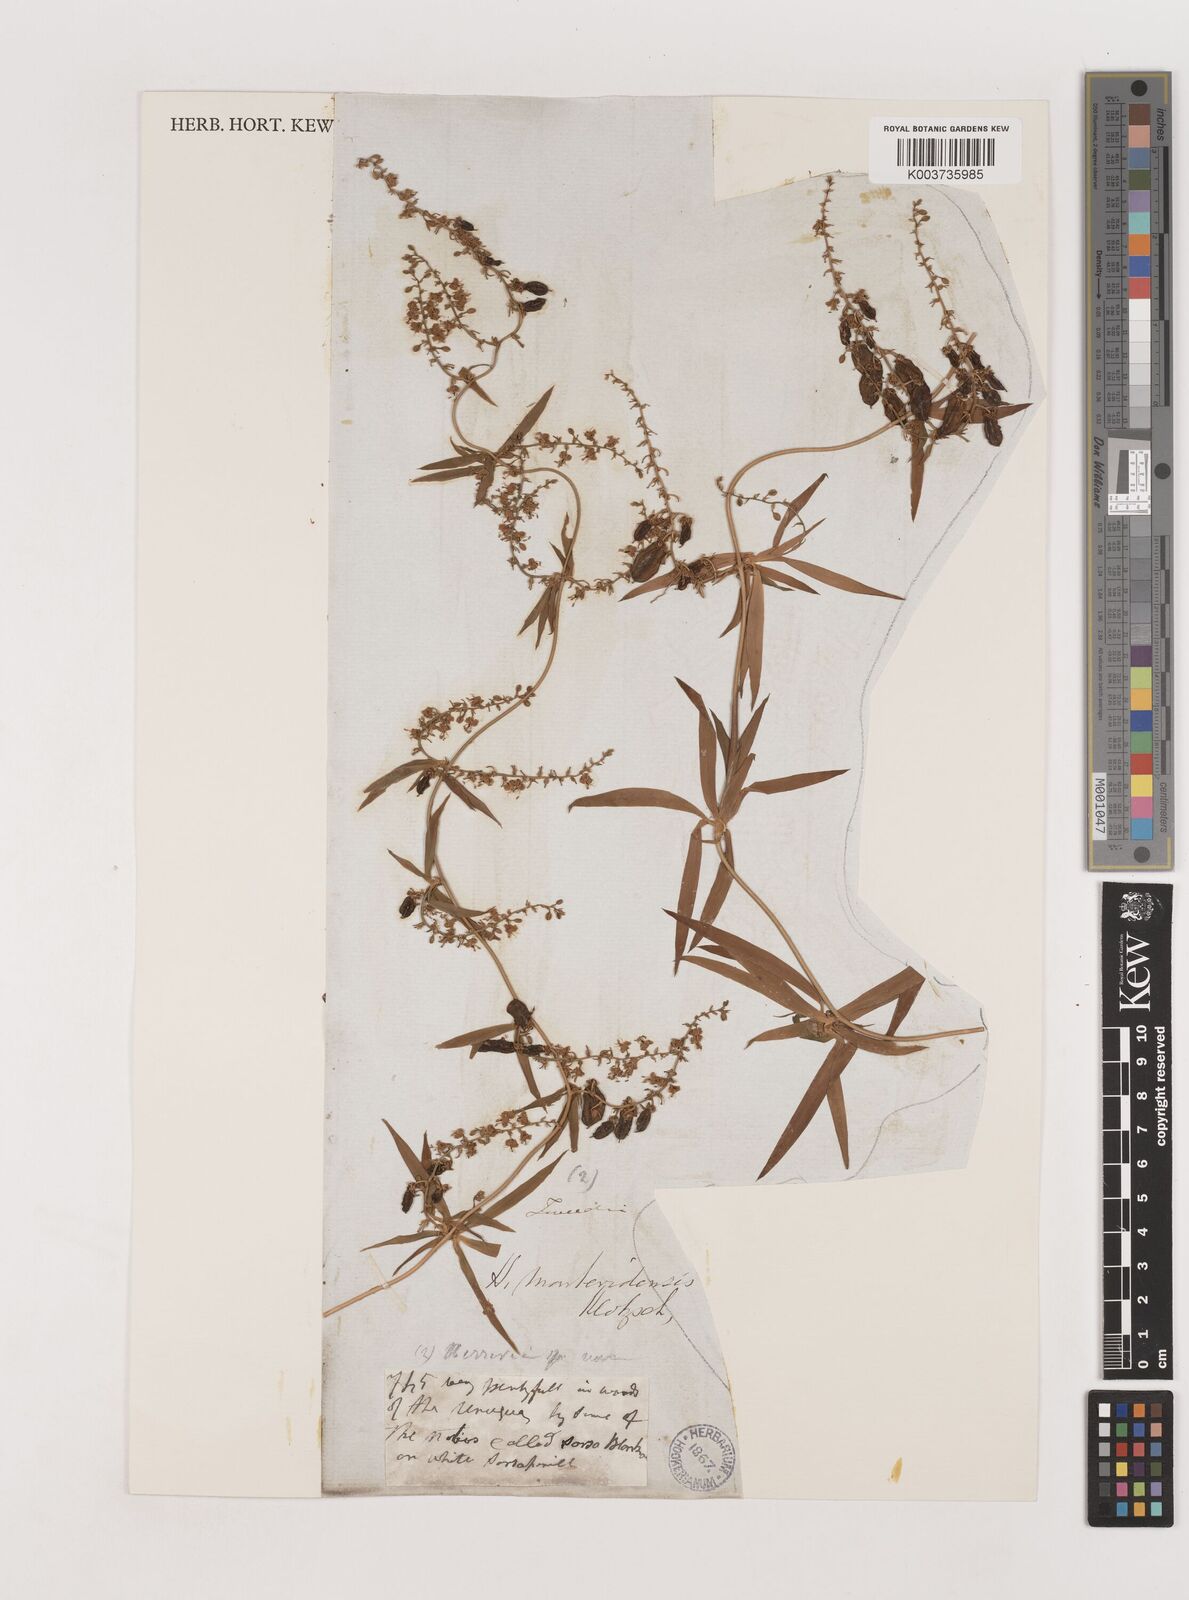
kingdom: Plantae
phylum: Tracheophyta
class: Liliopsida
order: Asparagales
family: Asparagaceae
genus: Herreria
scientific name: Herreria montevidensis
